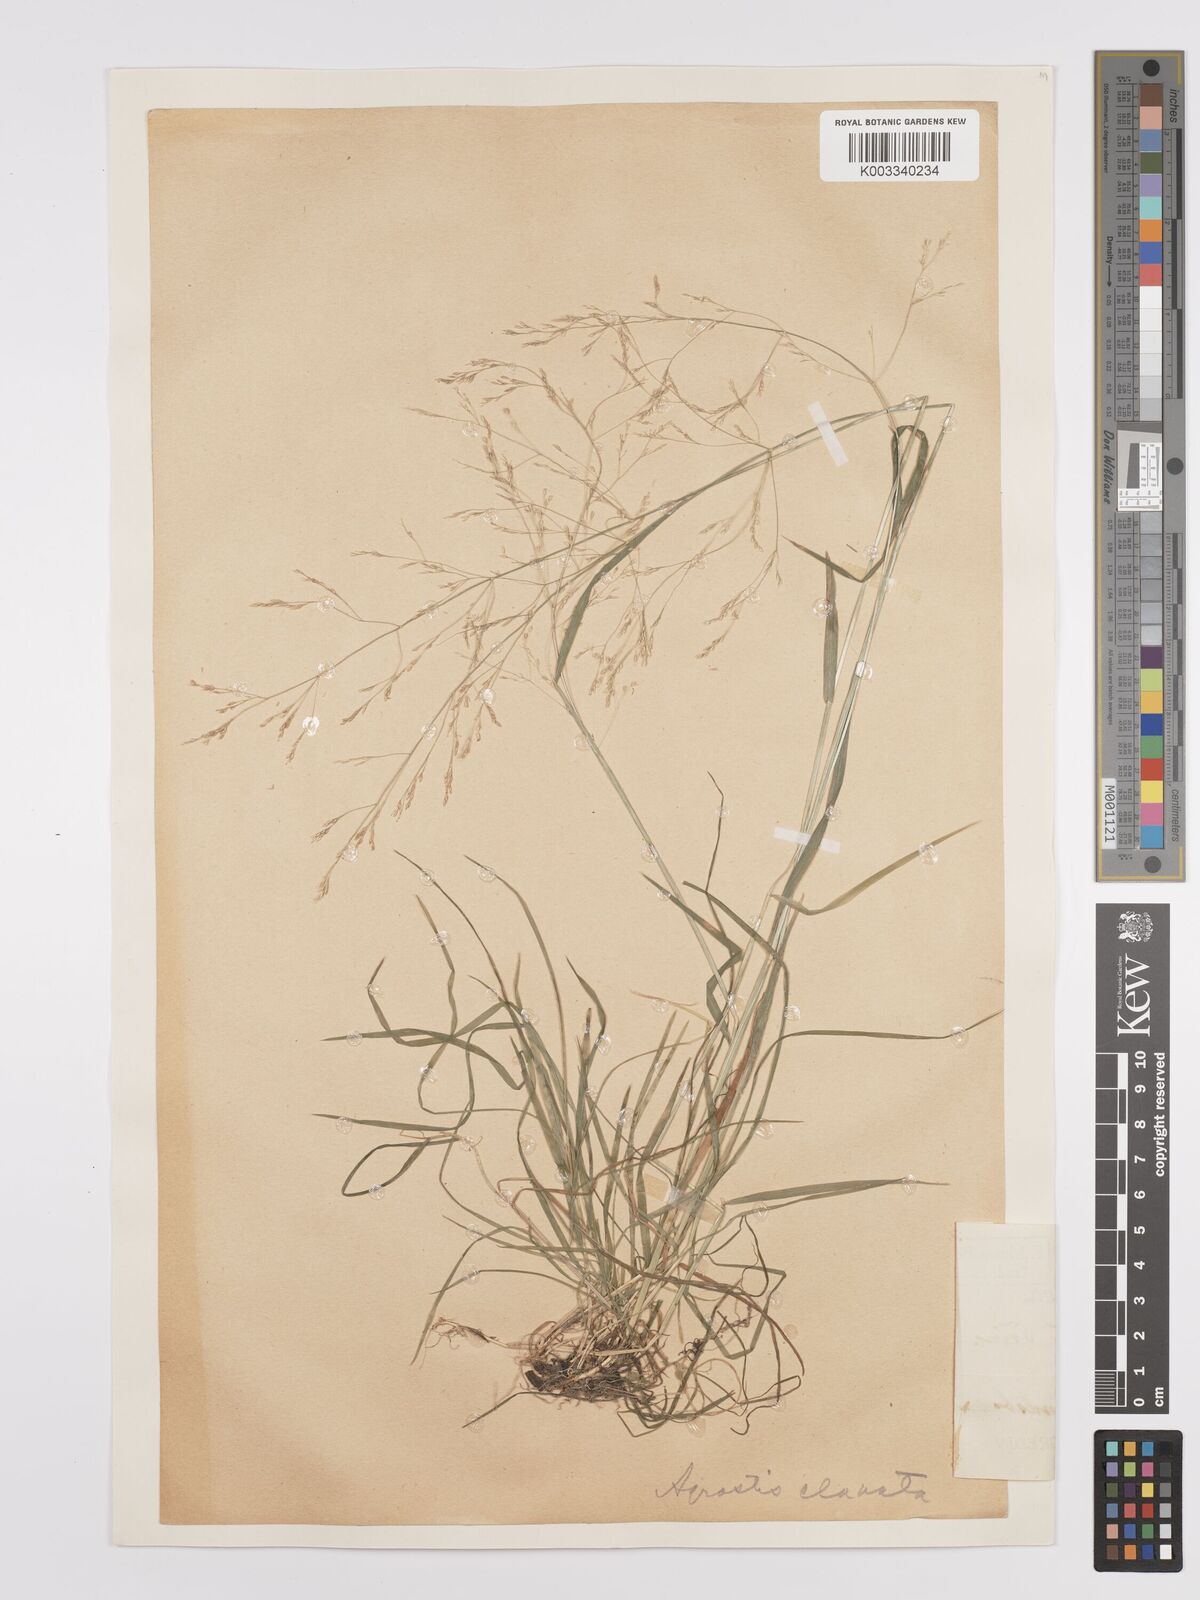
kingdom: Plantae
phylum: Tracheophyta
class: Liliopsida
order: Poales
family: Poaceae
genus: Agrostis
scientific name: Agrostis clavata
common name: Clavate bent
